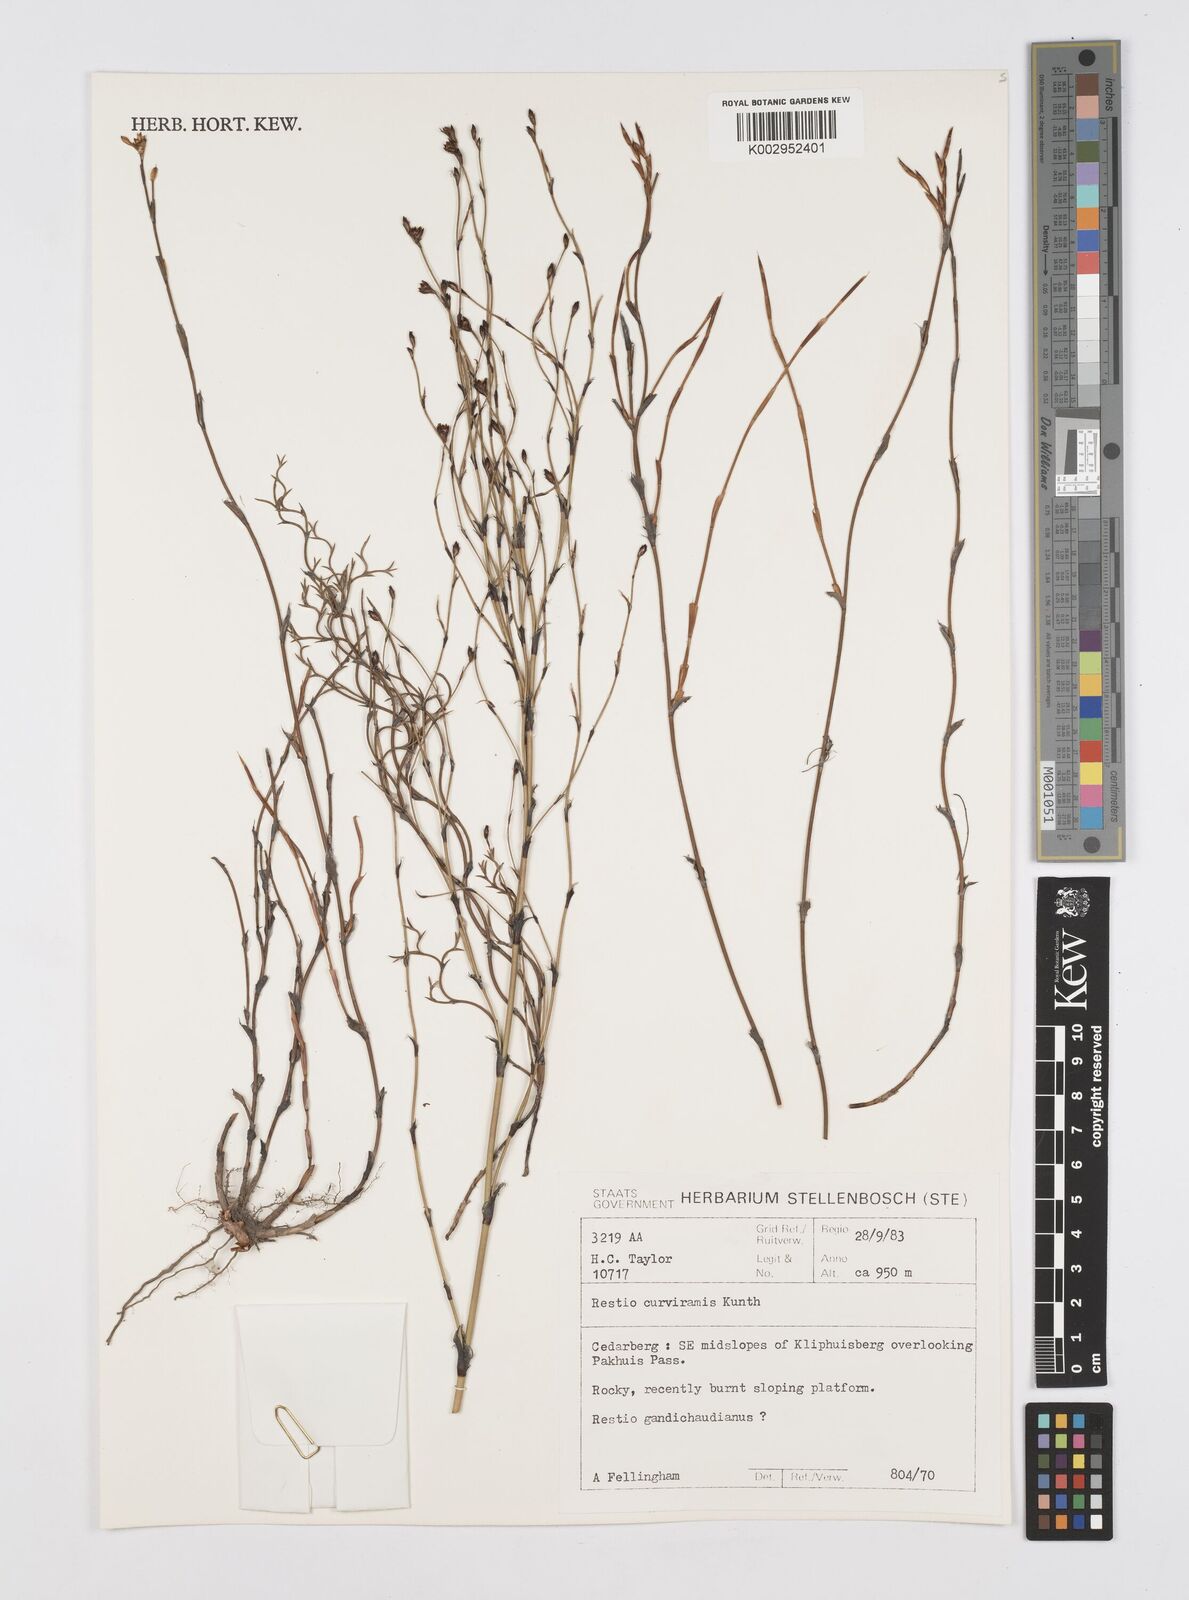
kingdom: Plantae
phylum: Tracheophyta
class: Liliopsida
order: Poales
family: Restionaceae
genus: Restio
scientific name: Restio curviramis
